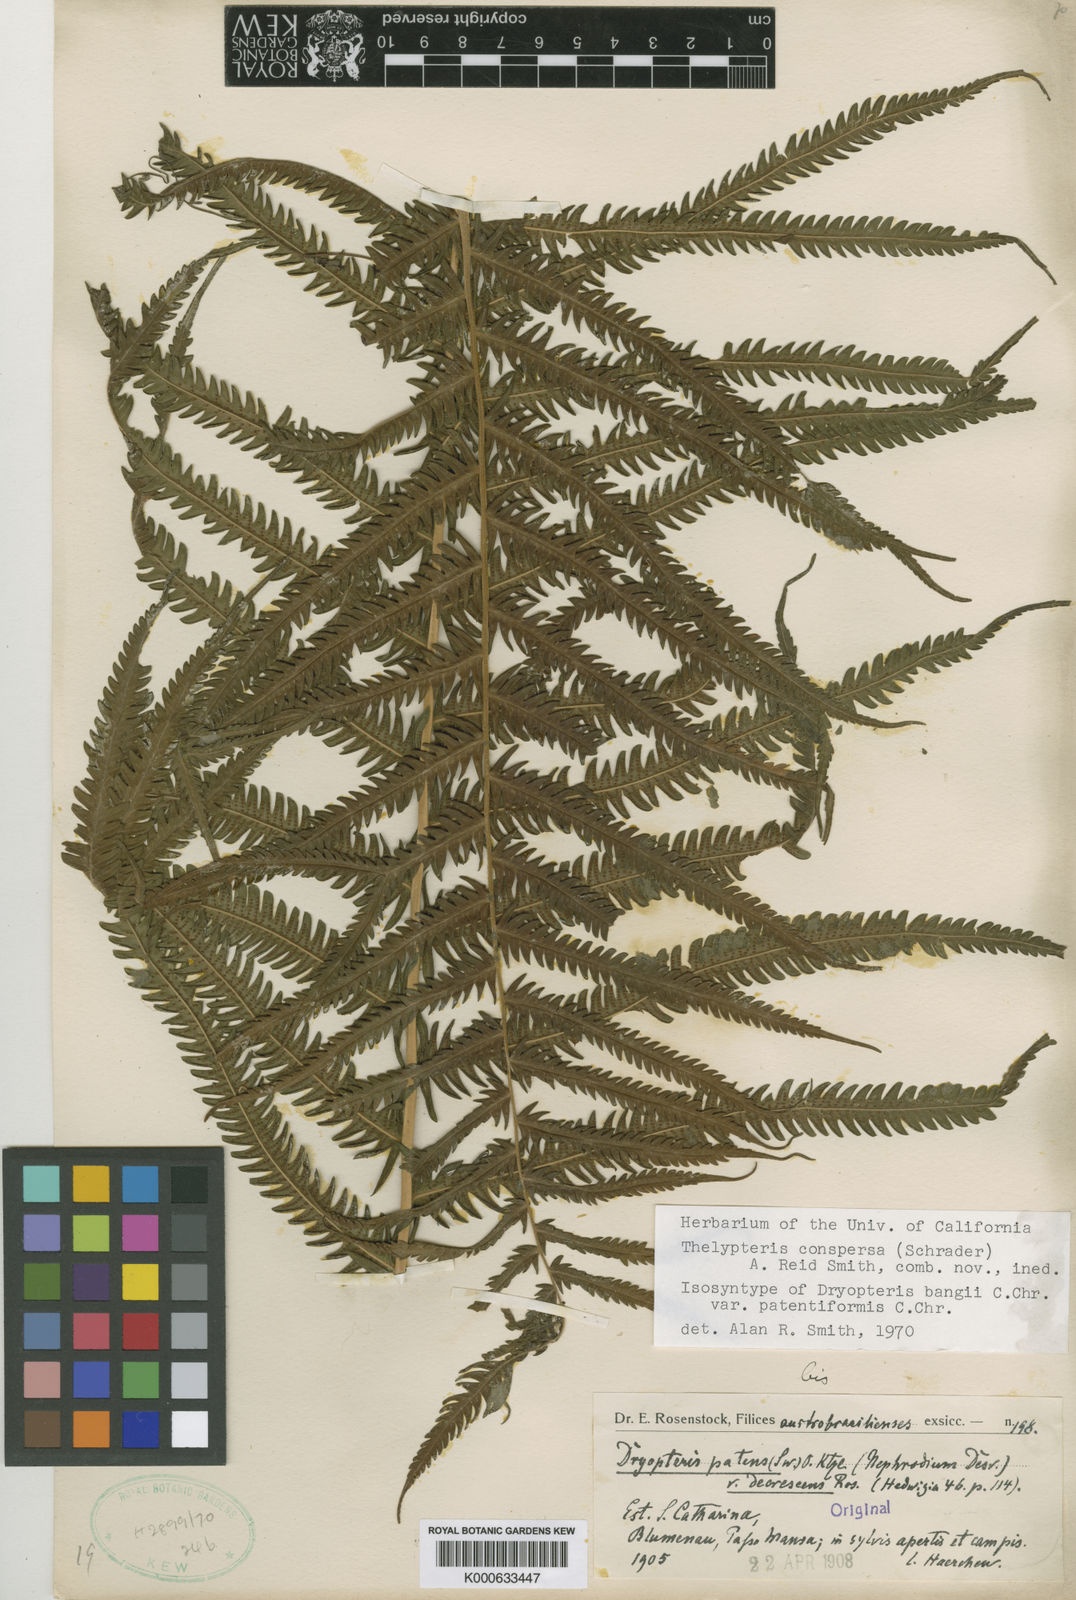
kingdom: Plantae
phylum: Tracheophyta
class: Polypodiopsida
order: Polypodiales
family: Thelypteridaceae
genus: Christella
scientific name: Christella
